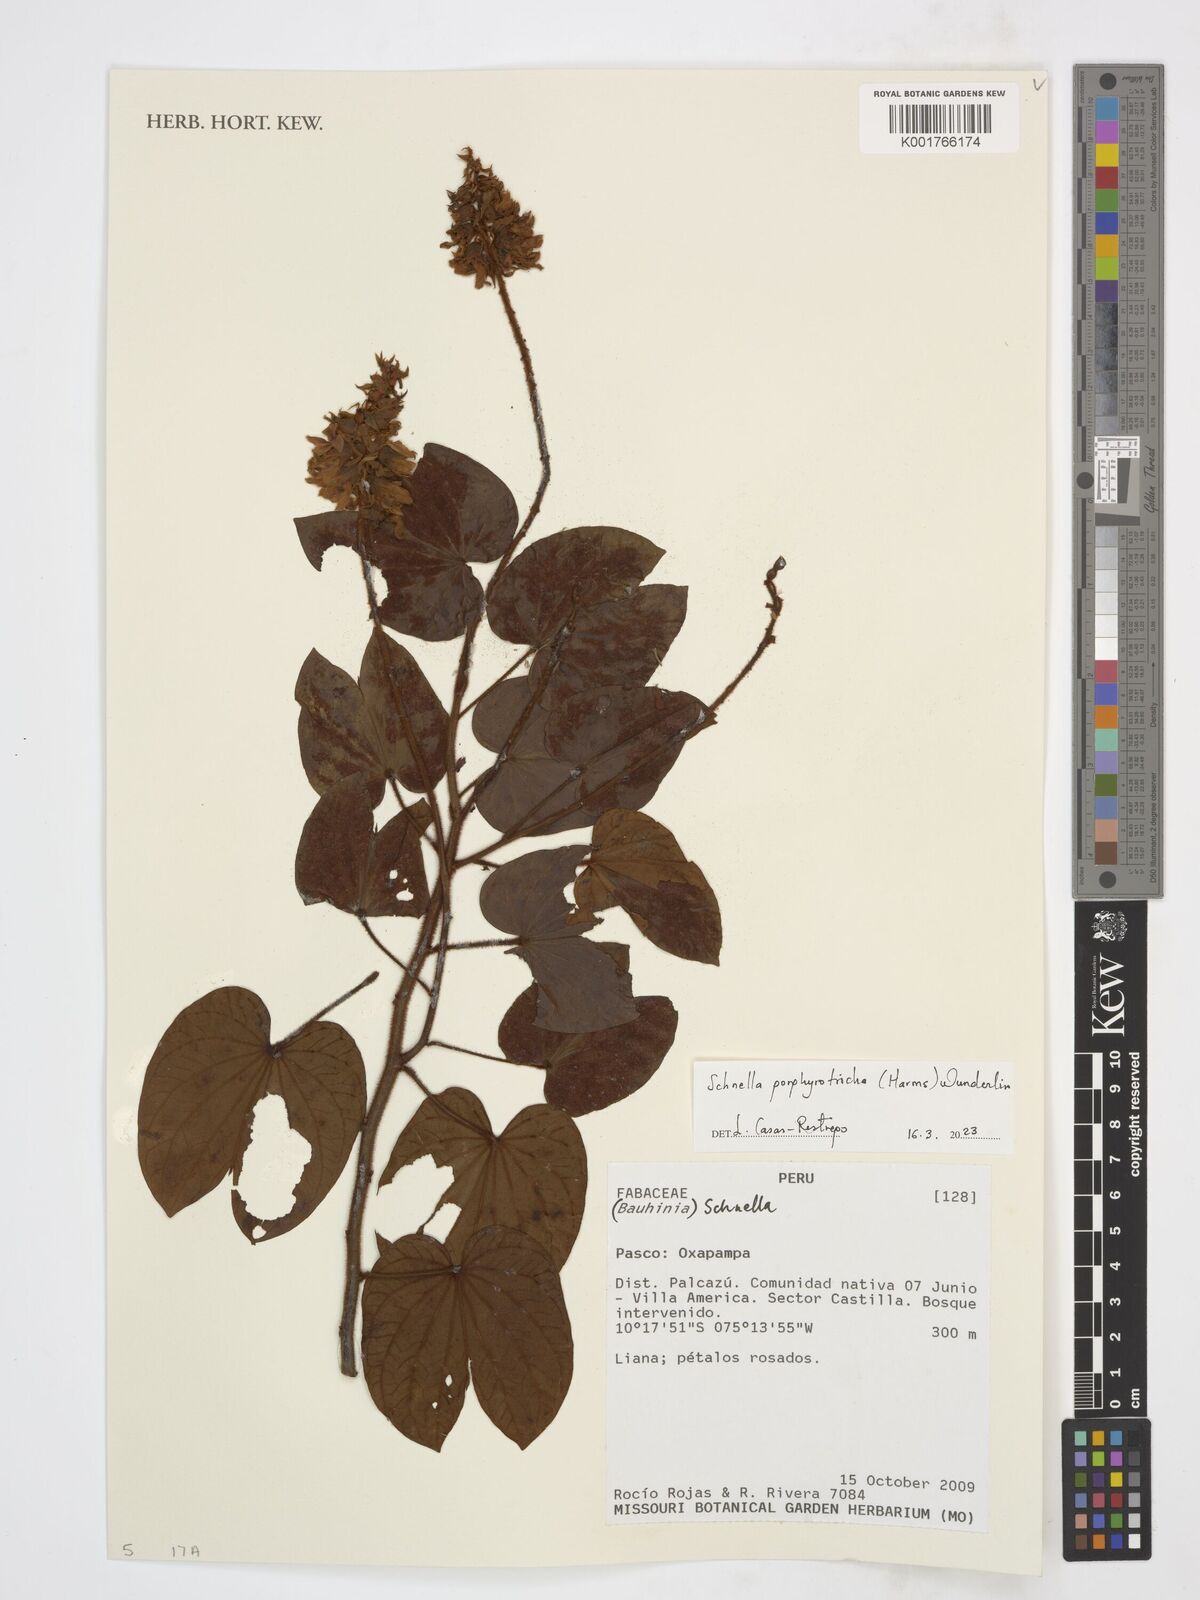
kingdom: Plantae
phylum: Tracheophyta
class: Magnoliopsida
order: Fabales
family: Fabaceae
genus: Schnella
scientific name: Schnella porphyrotricha
